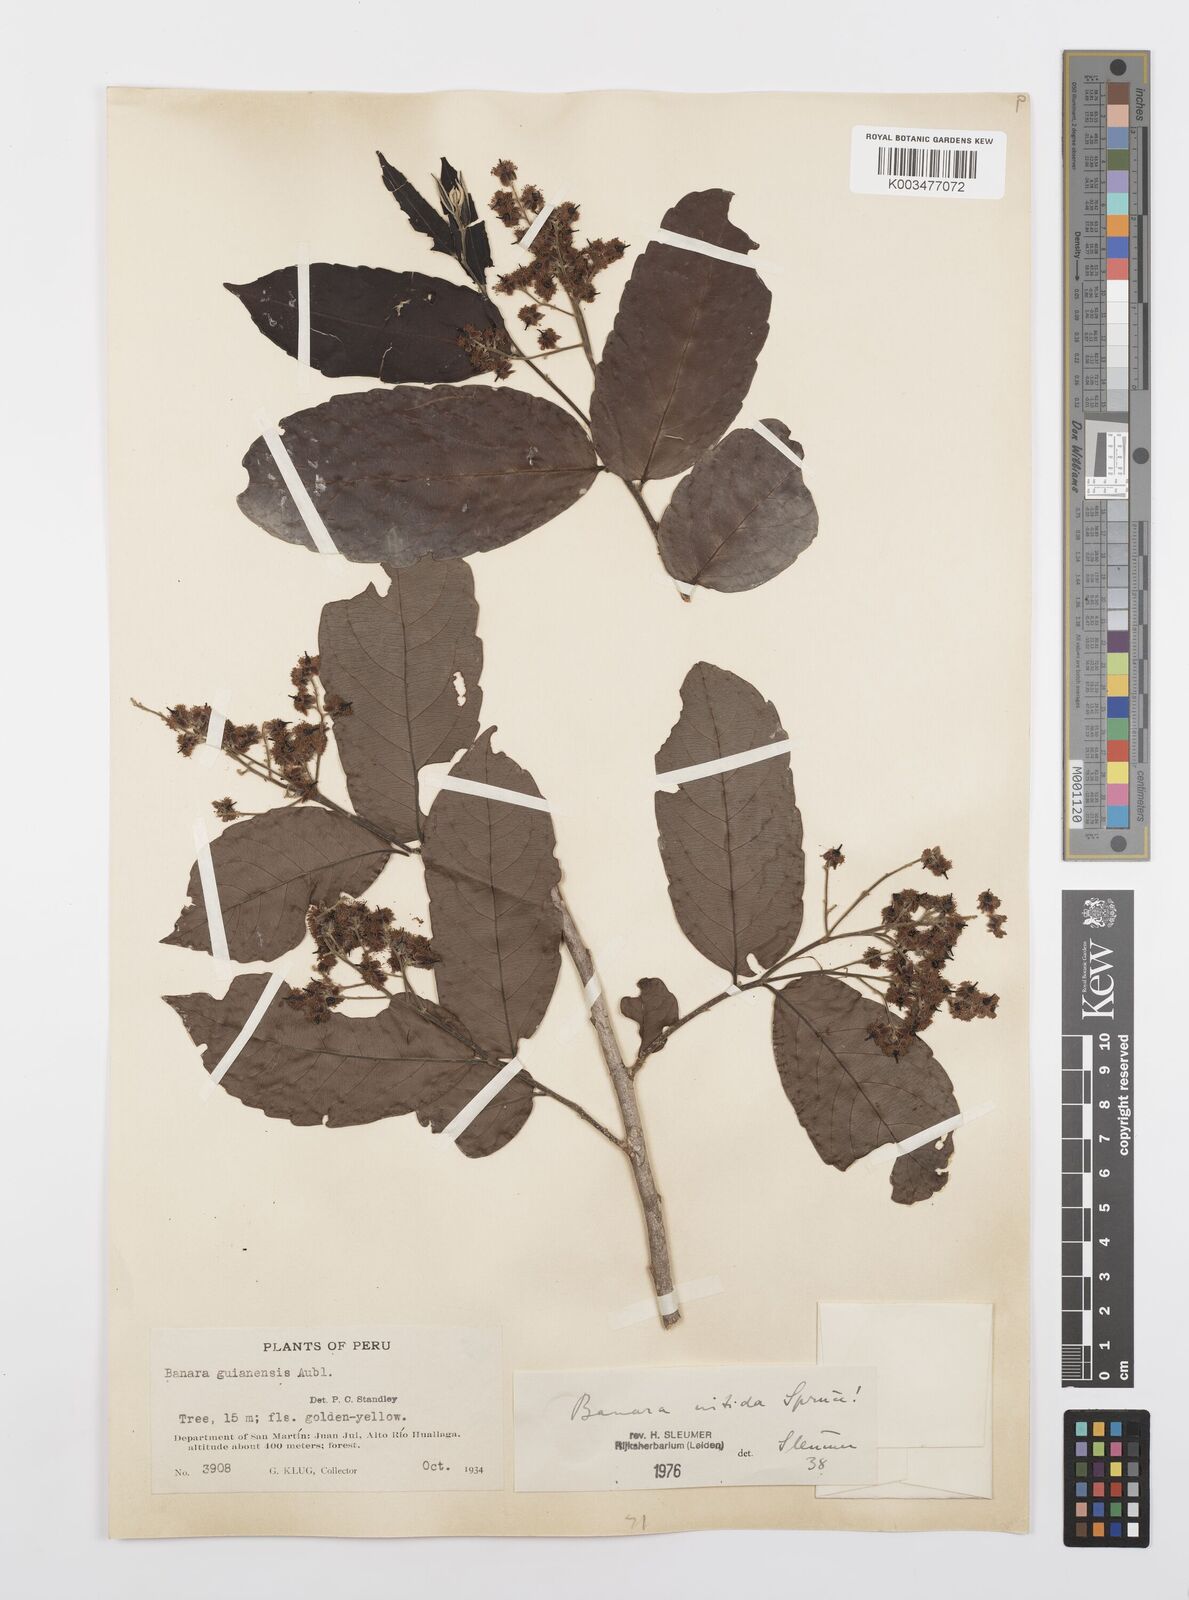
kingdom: Plantae
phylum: Tracheophyta
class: Magnoliopsida
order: Malpighiales
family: Salicaceae
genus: Banara
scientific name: Banara nitida
